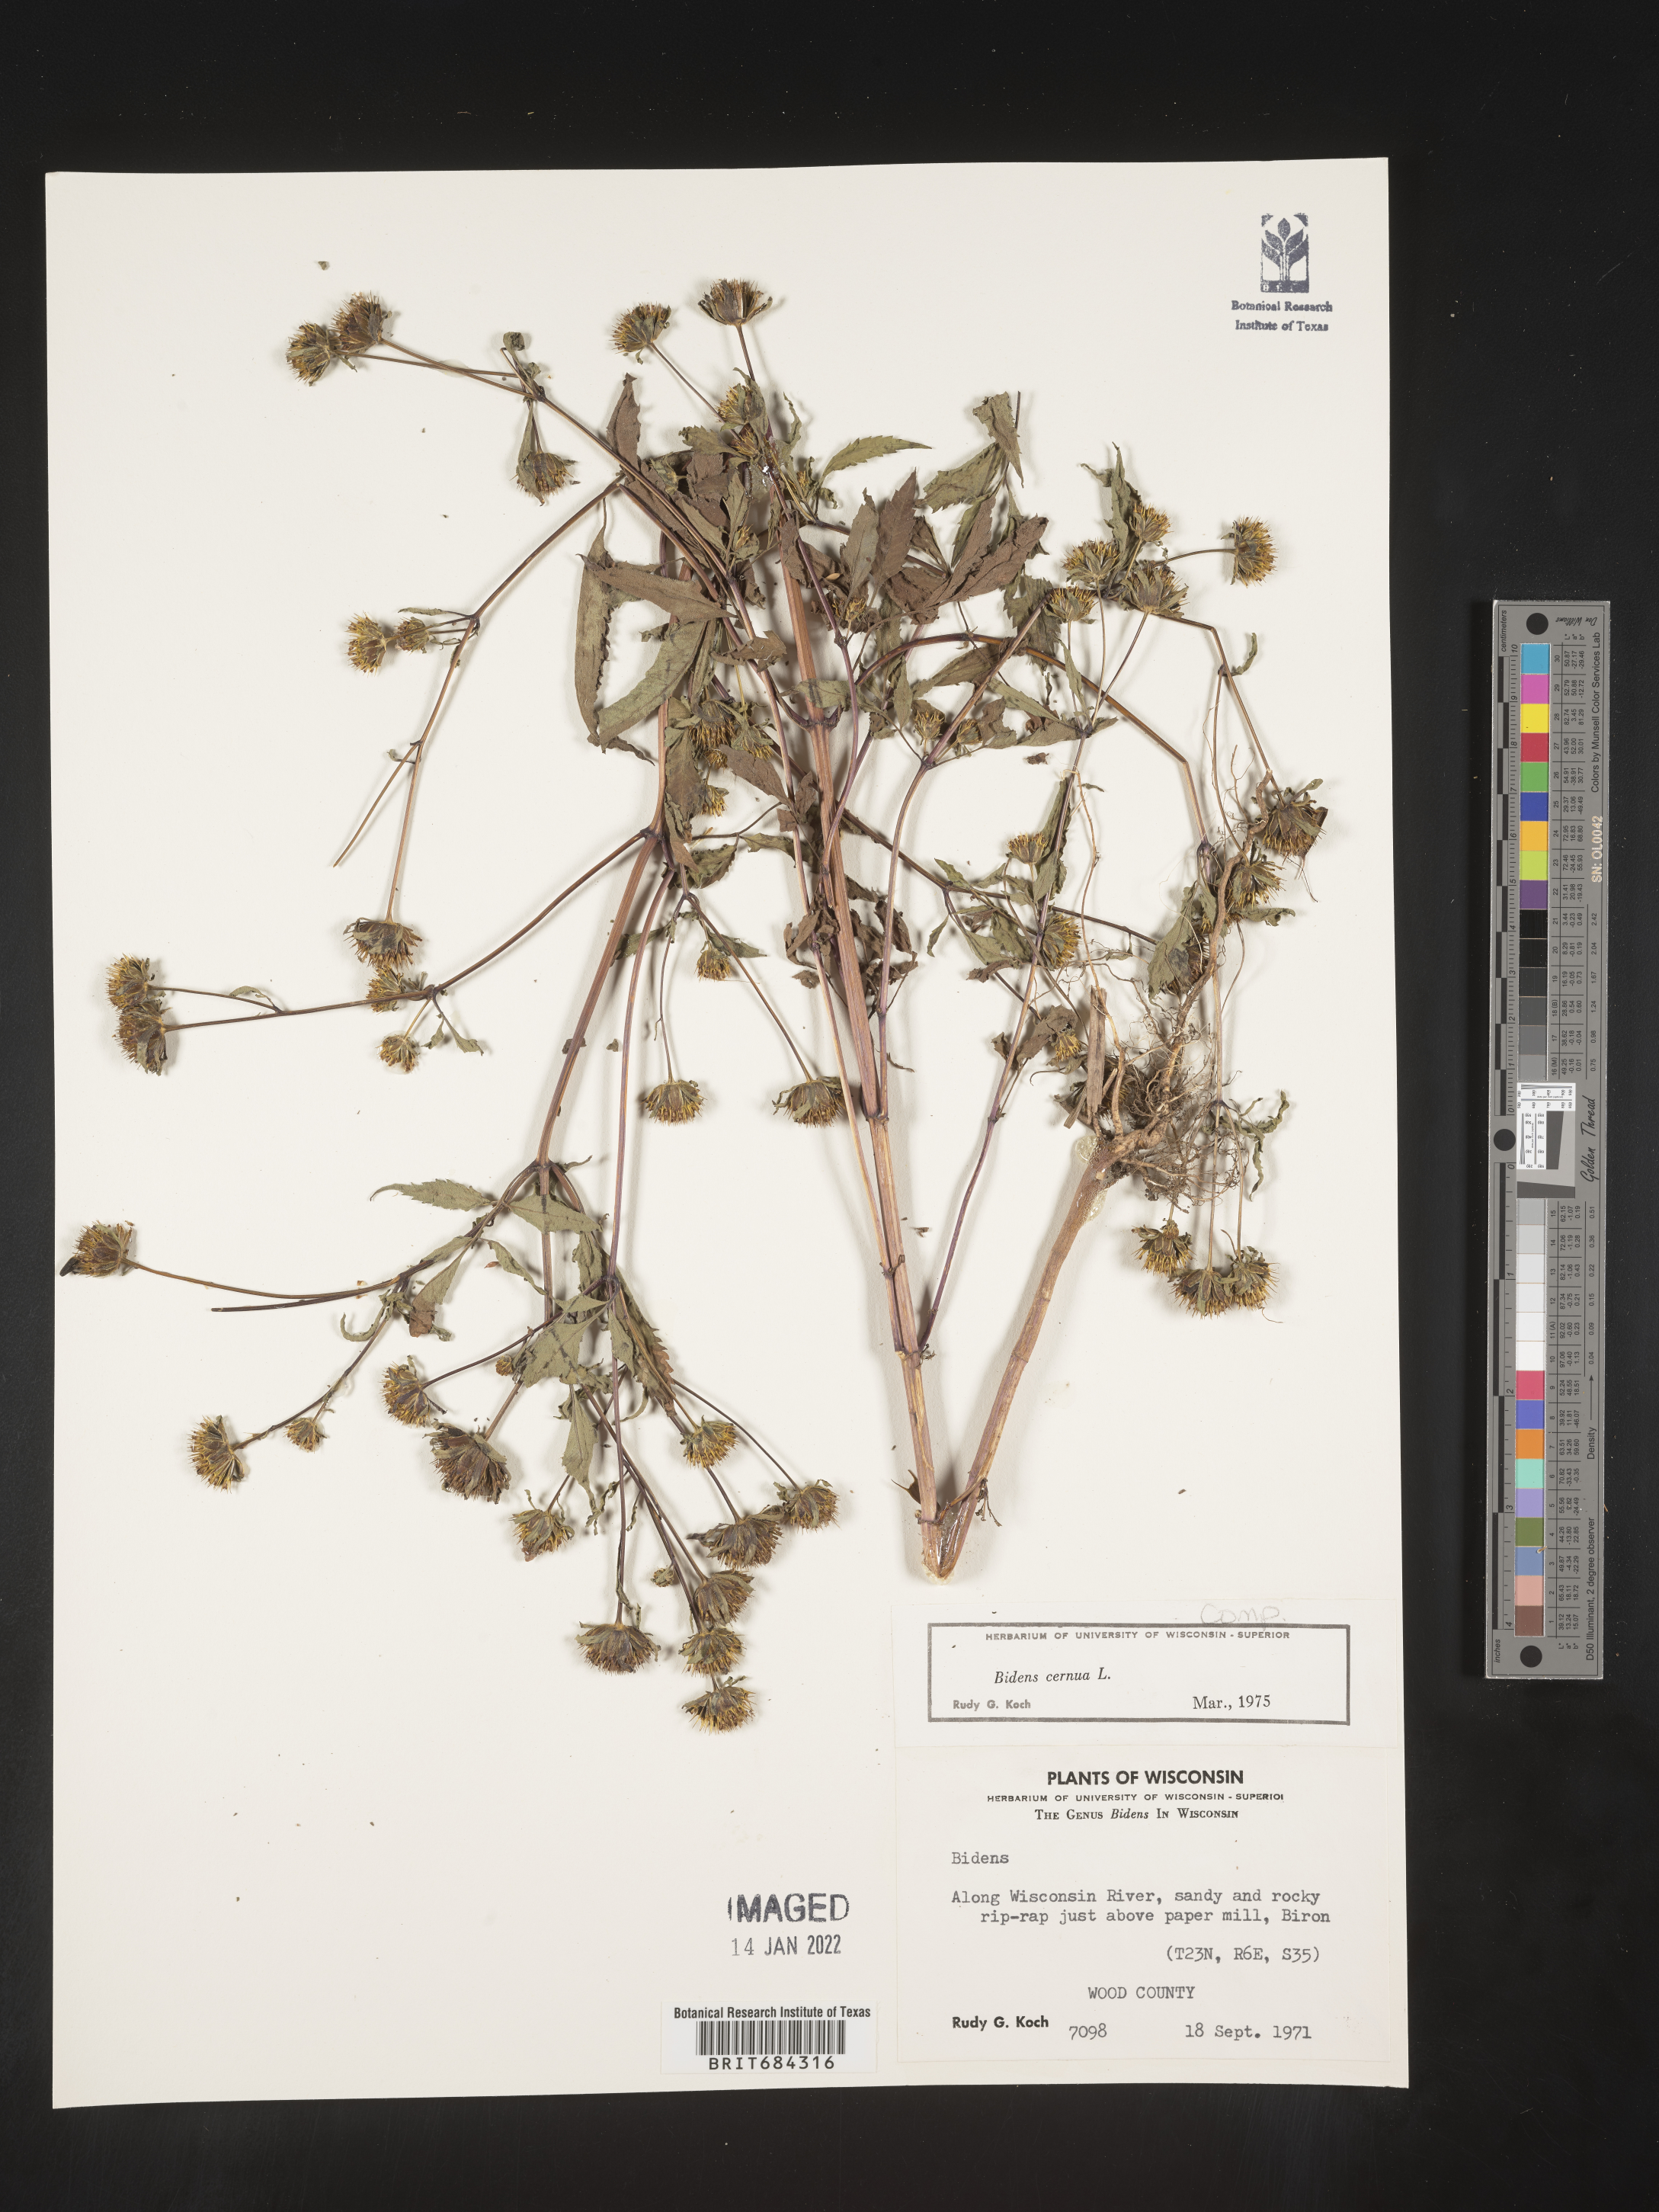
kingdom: Plantae
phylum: Tracheophyta
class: Magnoliopsida
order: Asterales
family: Asteraceae
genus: Bidens
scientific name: Bidens cernua
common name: Nodding bur-marigold
